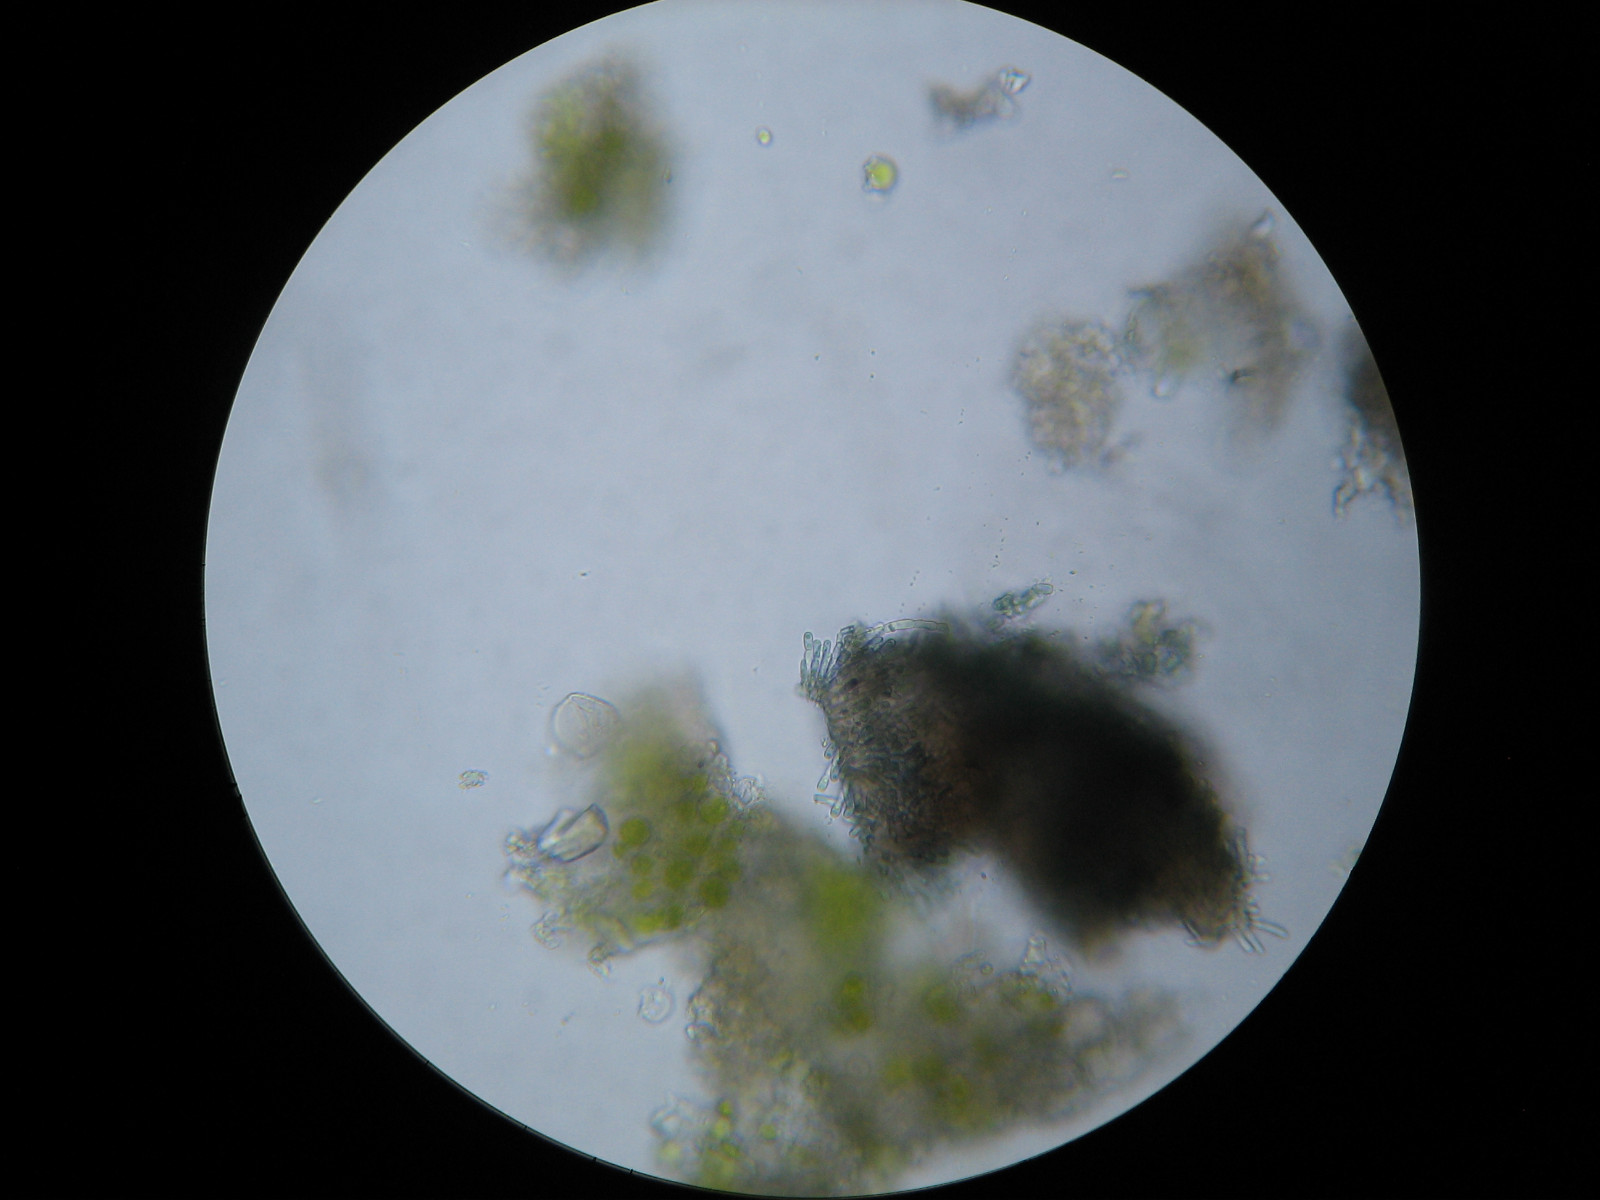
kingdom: Fungi
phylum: Ascomycota
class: Dothideomycetes
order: Pleosporales
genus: Vouauxiella
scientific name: Vouauxiella lichenicola
